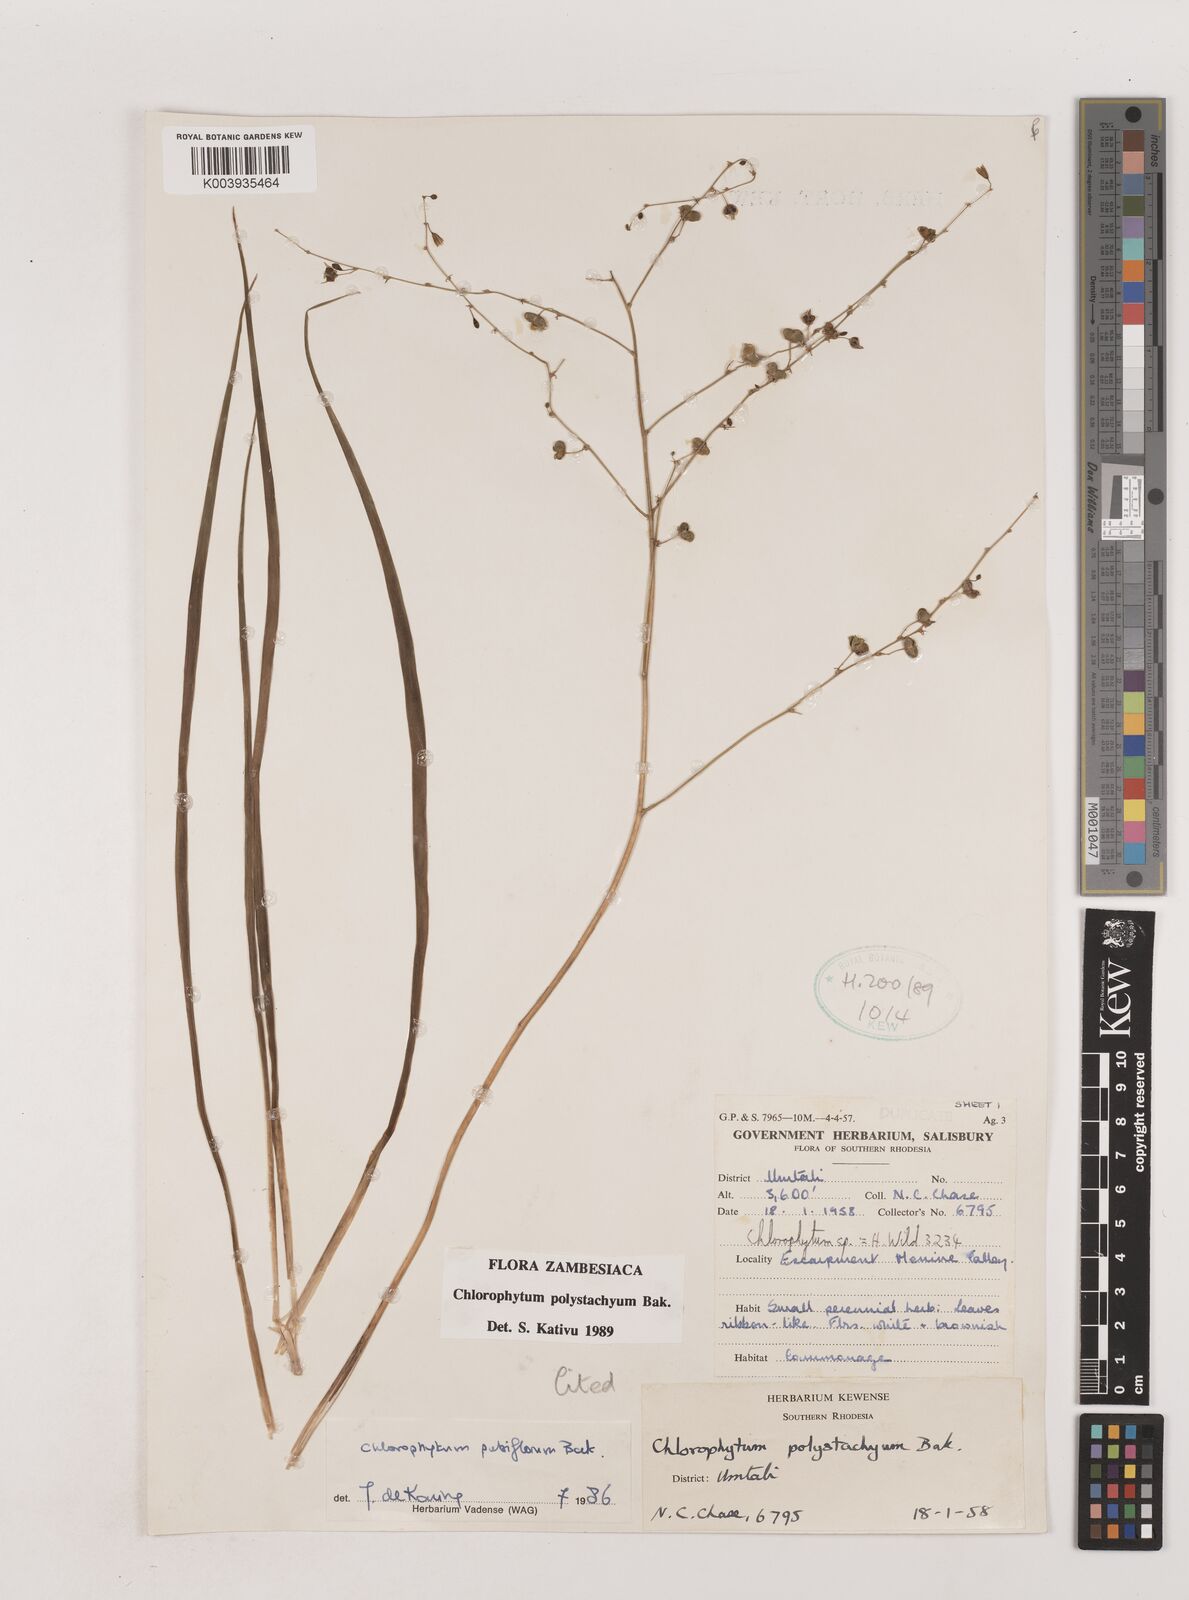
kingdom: Plantae
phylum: Tracheophyta
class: Liliopsida
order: Asparagales
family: Asparagaceae
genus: Chlorophytum
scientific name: Chlorophytum polystachys
